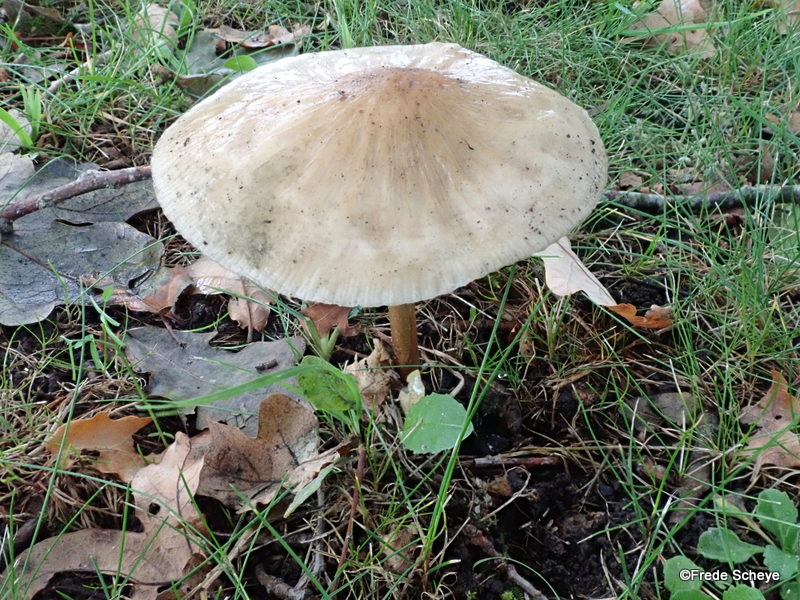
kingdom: Fungi
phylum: Basidiomycota
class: Agaricomycetes
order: Agaricales
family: Physalacriaceae
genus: Hymenopellis
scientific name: Hymenopellis radicata
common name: almindelig pælerodshat
